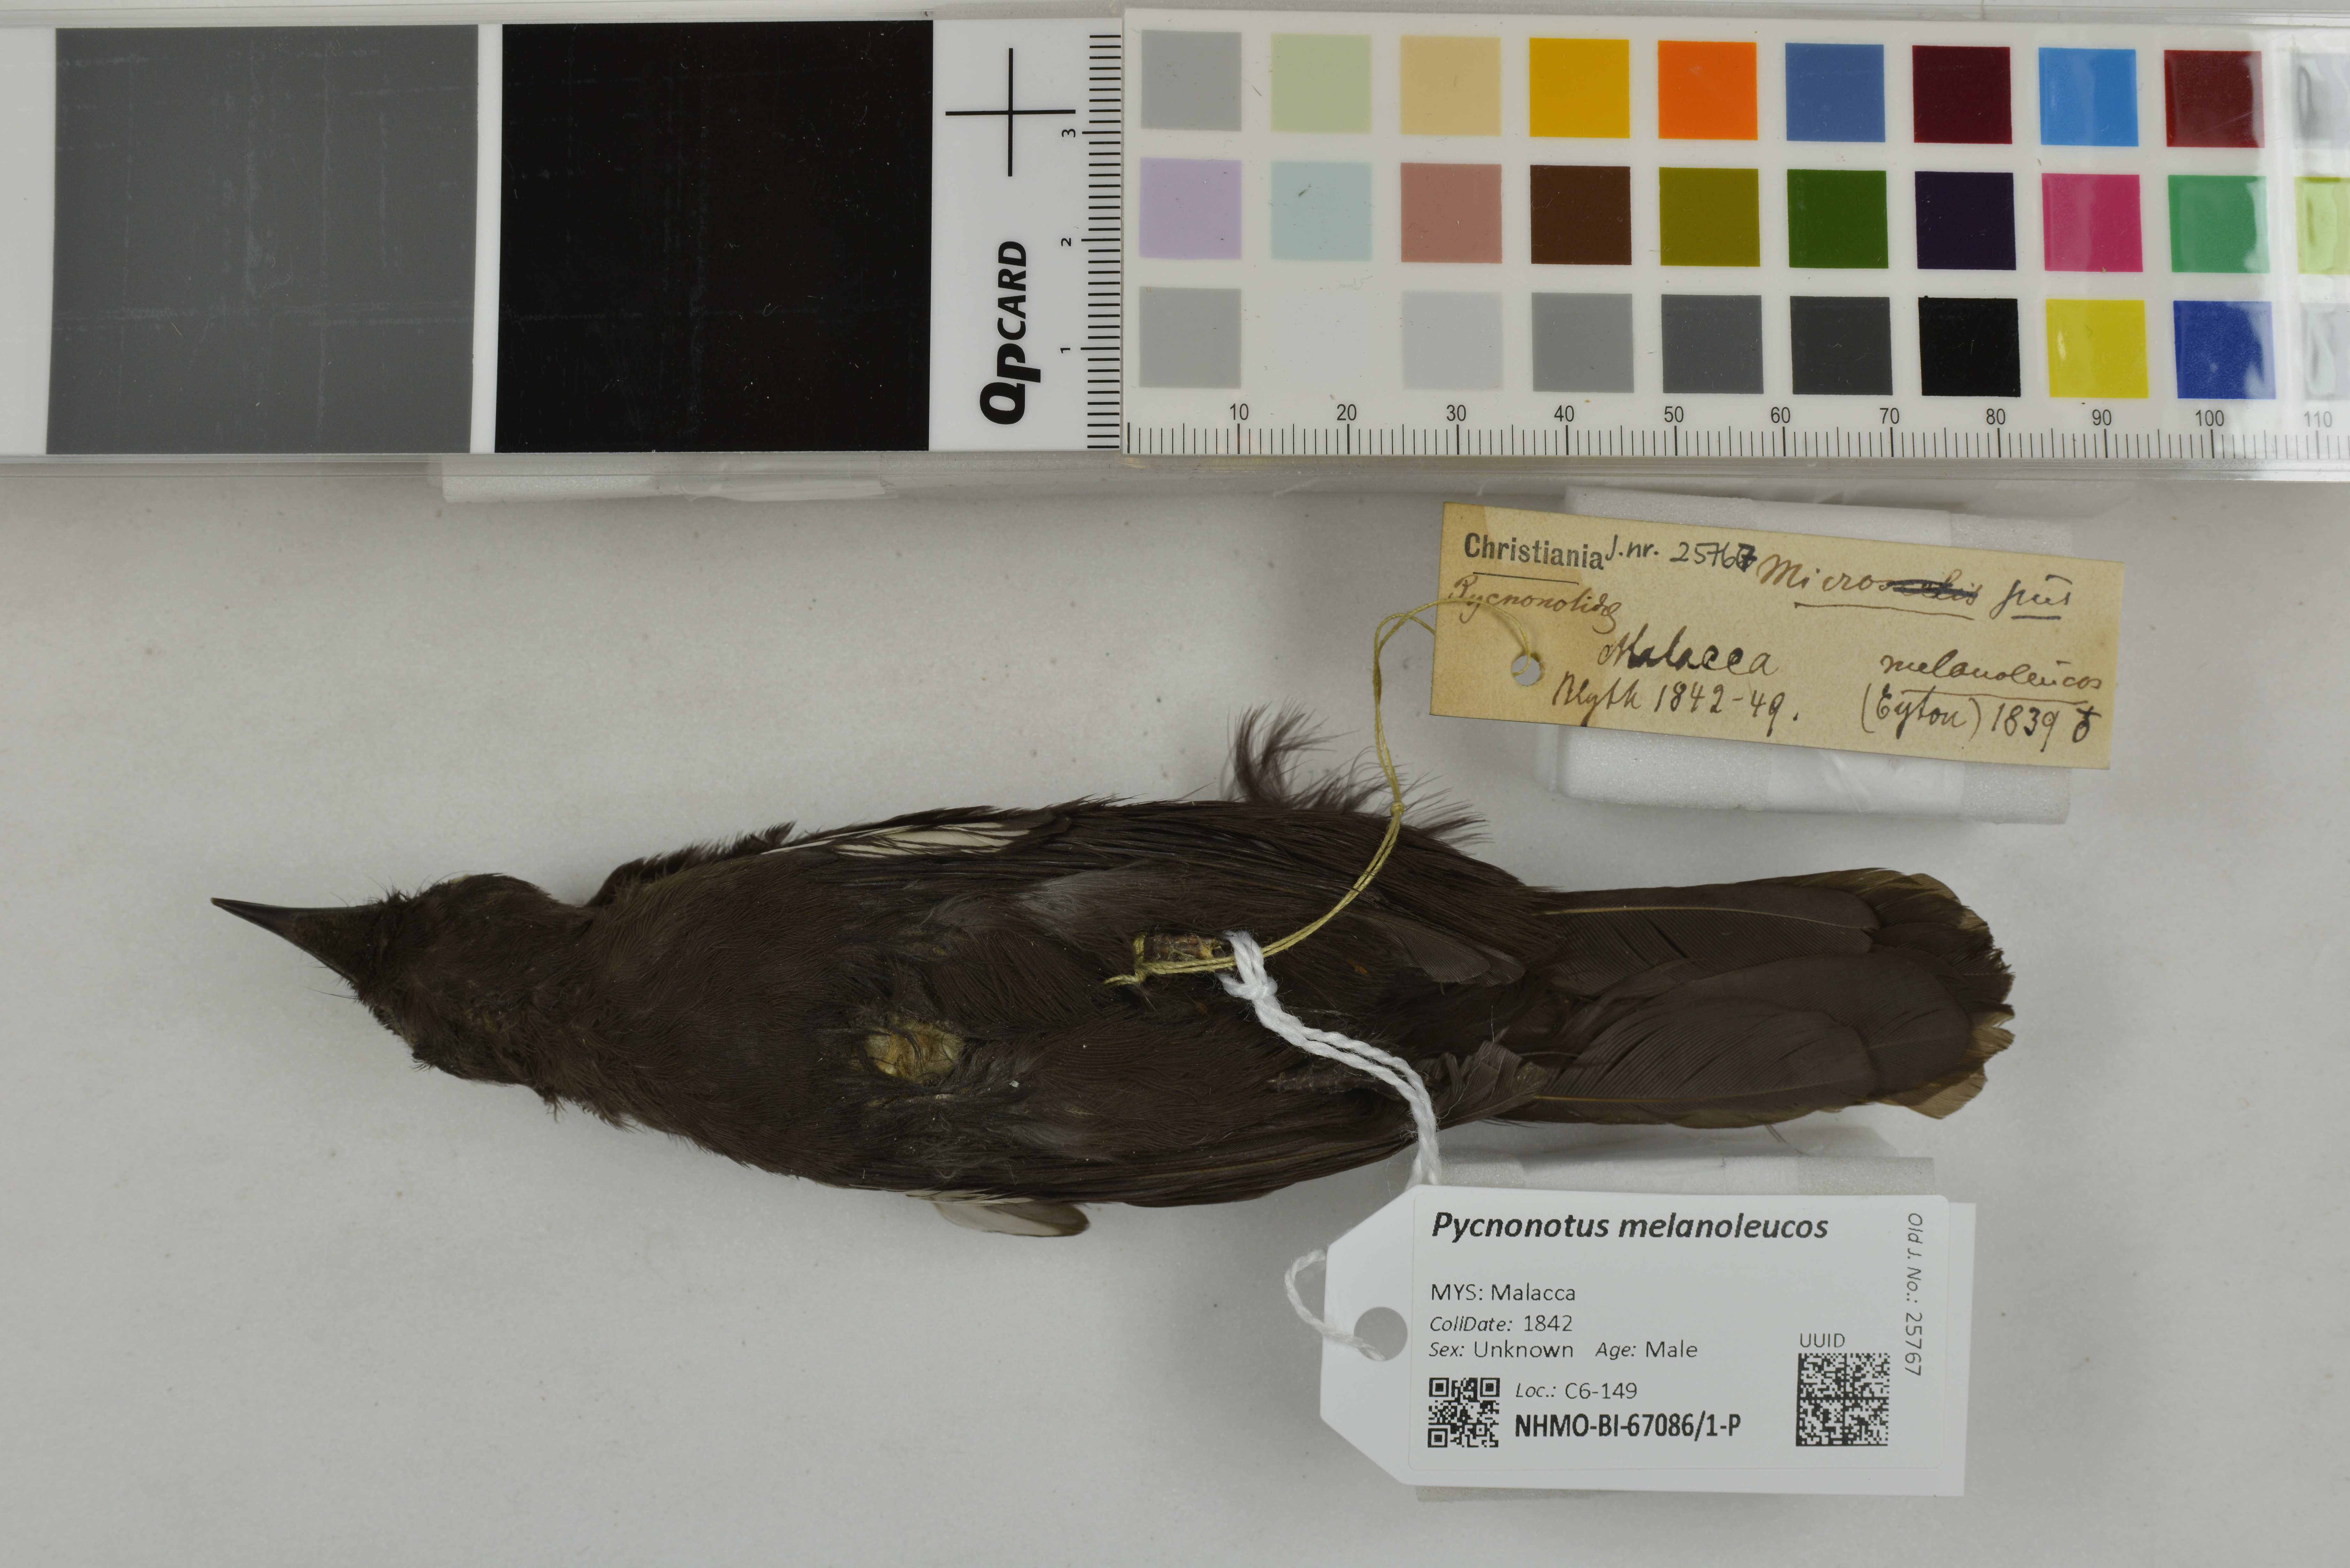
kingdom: Animalia
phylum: Chordata
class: Aves
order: Passeriformes
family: Pycnonotidae
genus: Pycnonotus
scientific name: Pycnonotus melanoleucos
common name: Black-and-white bulbul
